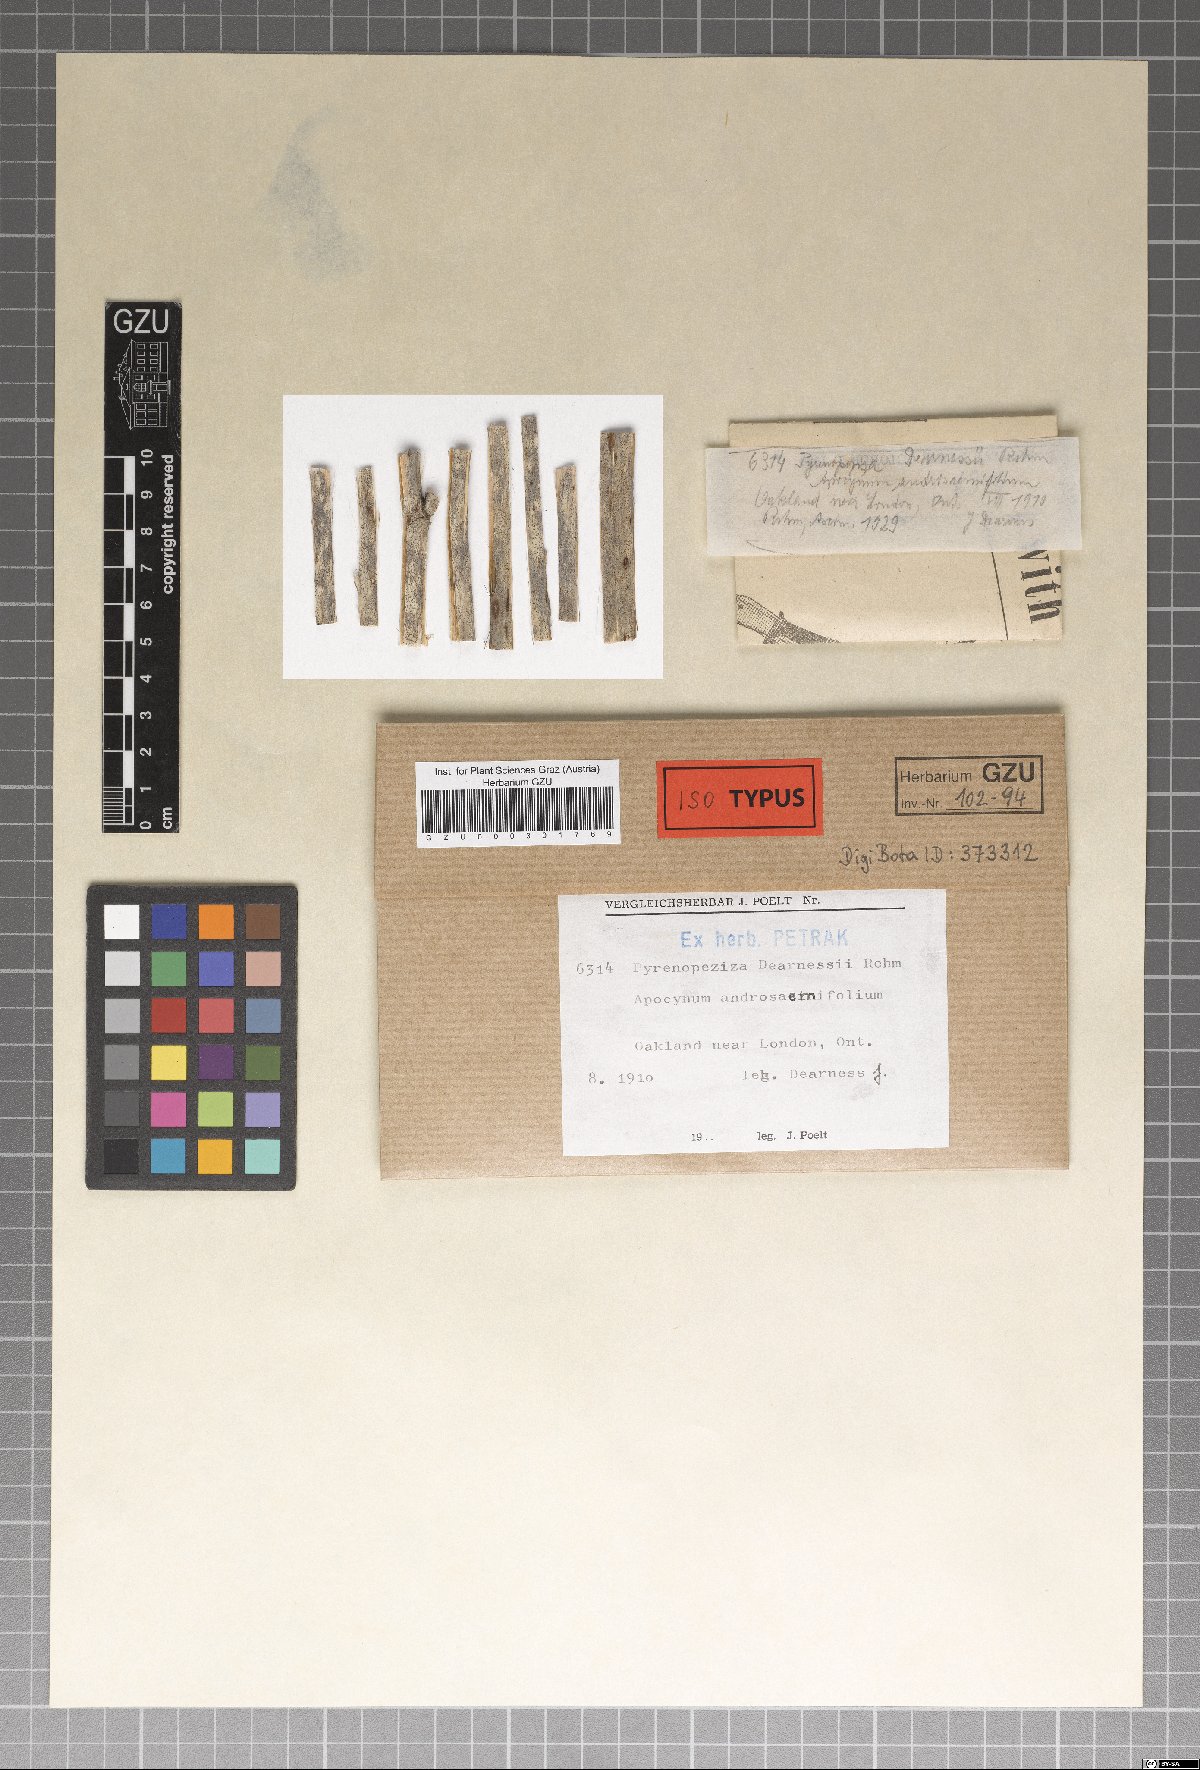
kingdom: Fungi
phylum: Ascomycota
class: Leotiomycetes
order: Helotiales
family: Ploettnerulaceae
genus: Pyrenopeziza
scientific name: Pyrenopeziza dearnessii
